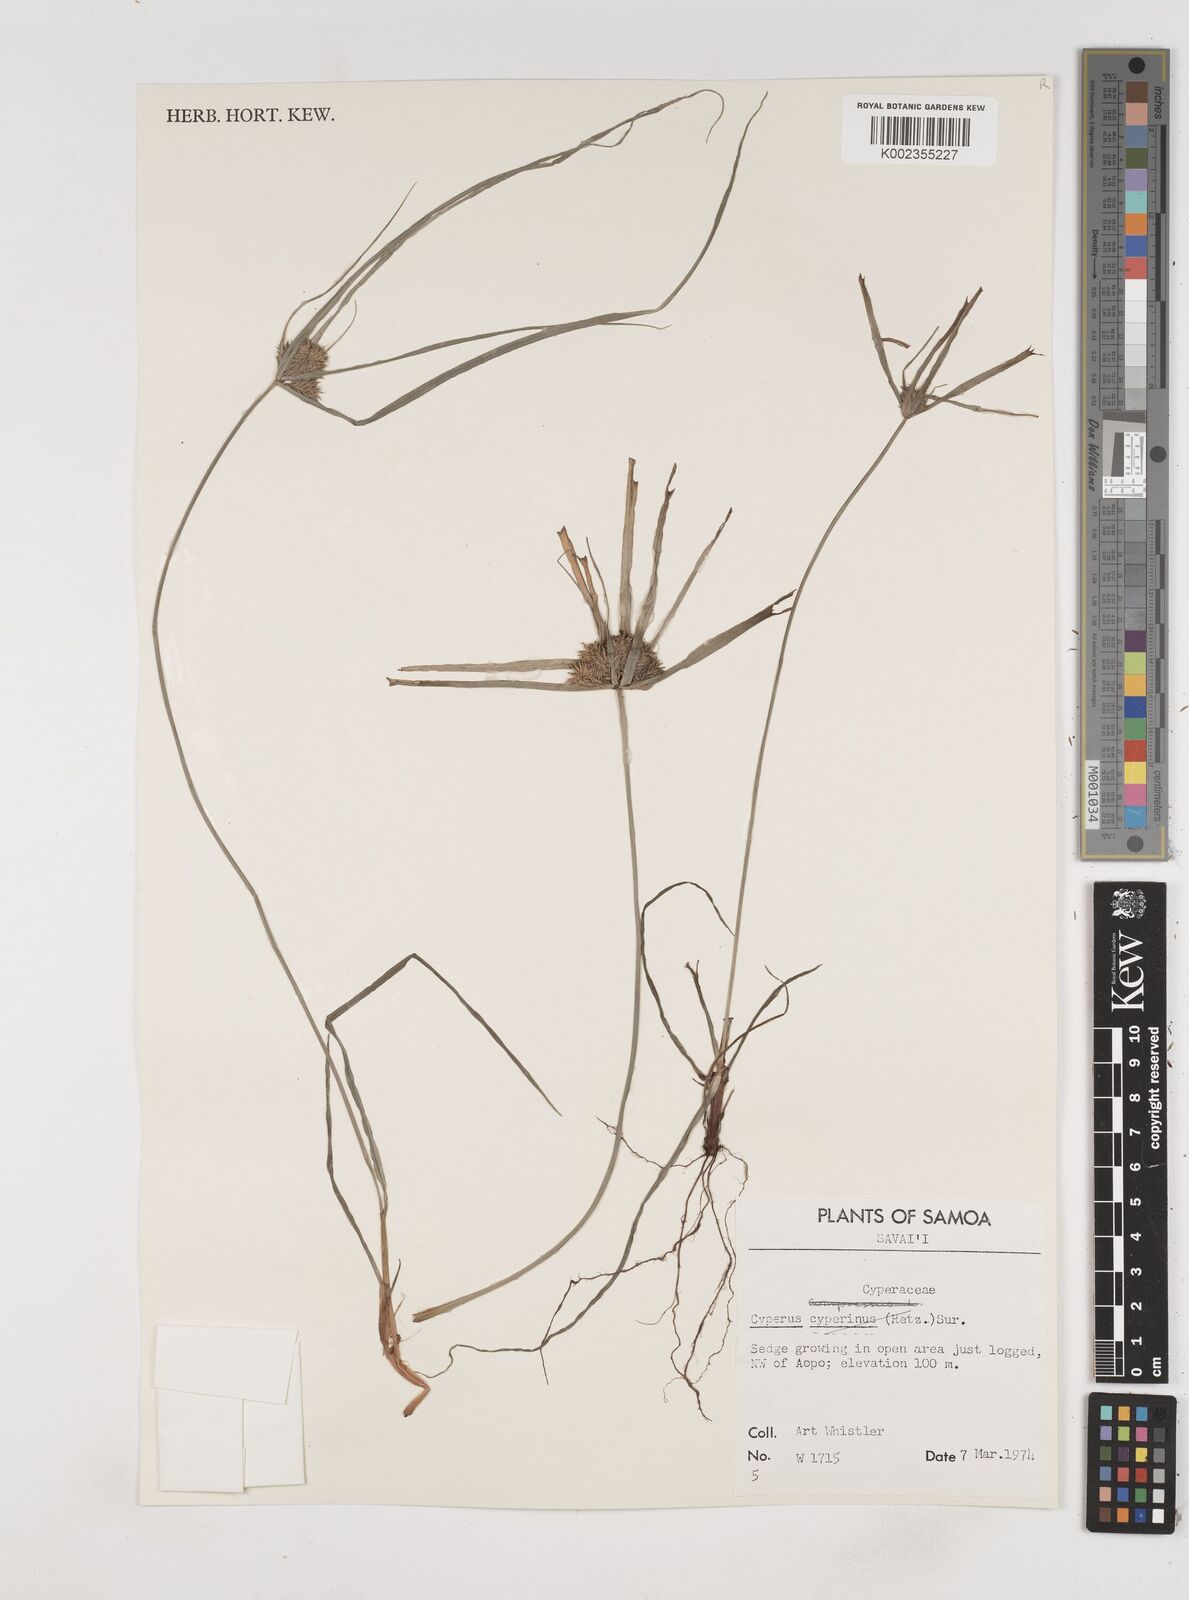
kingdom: Plantae
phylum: Tracheophyta
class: Liliopsida
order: Poales
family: Cyperaceae
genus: Cyperus
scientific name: Cyperus cyperinus
